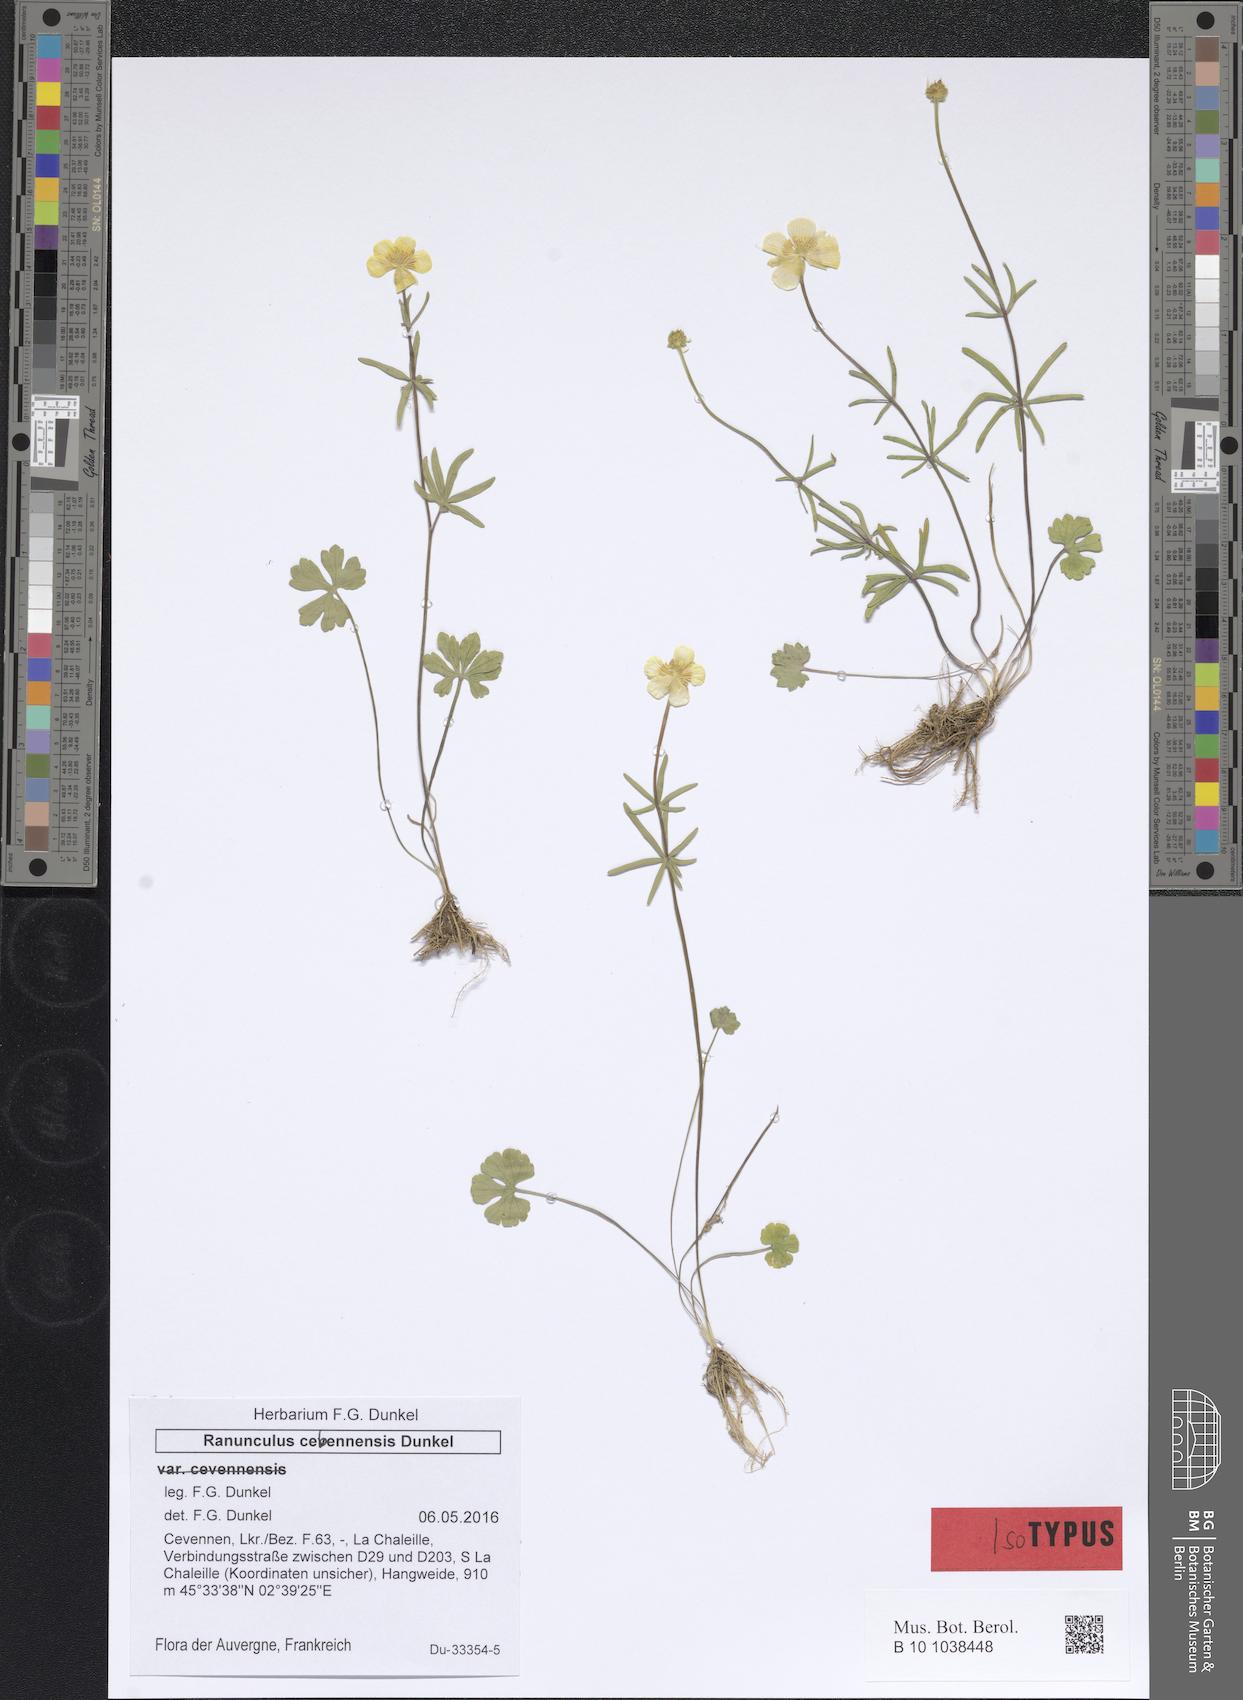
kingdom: Plantae
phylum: Tracheophyta
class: Magnoliopsida
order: Ranunculales
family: Ranunculaceae
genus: Ranunculus
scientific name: Ranunculus envalirensis
